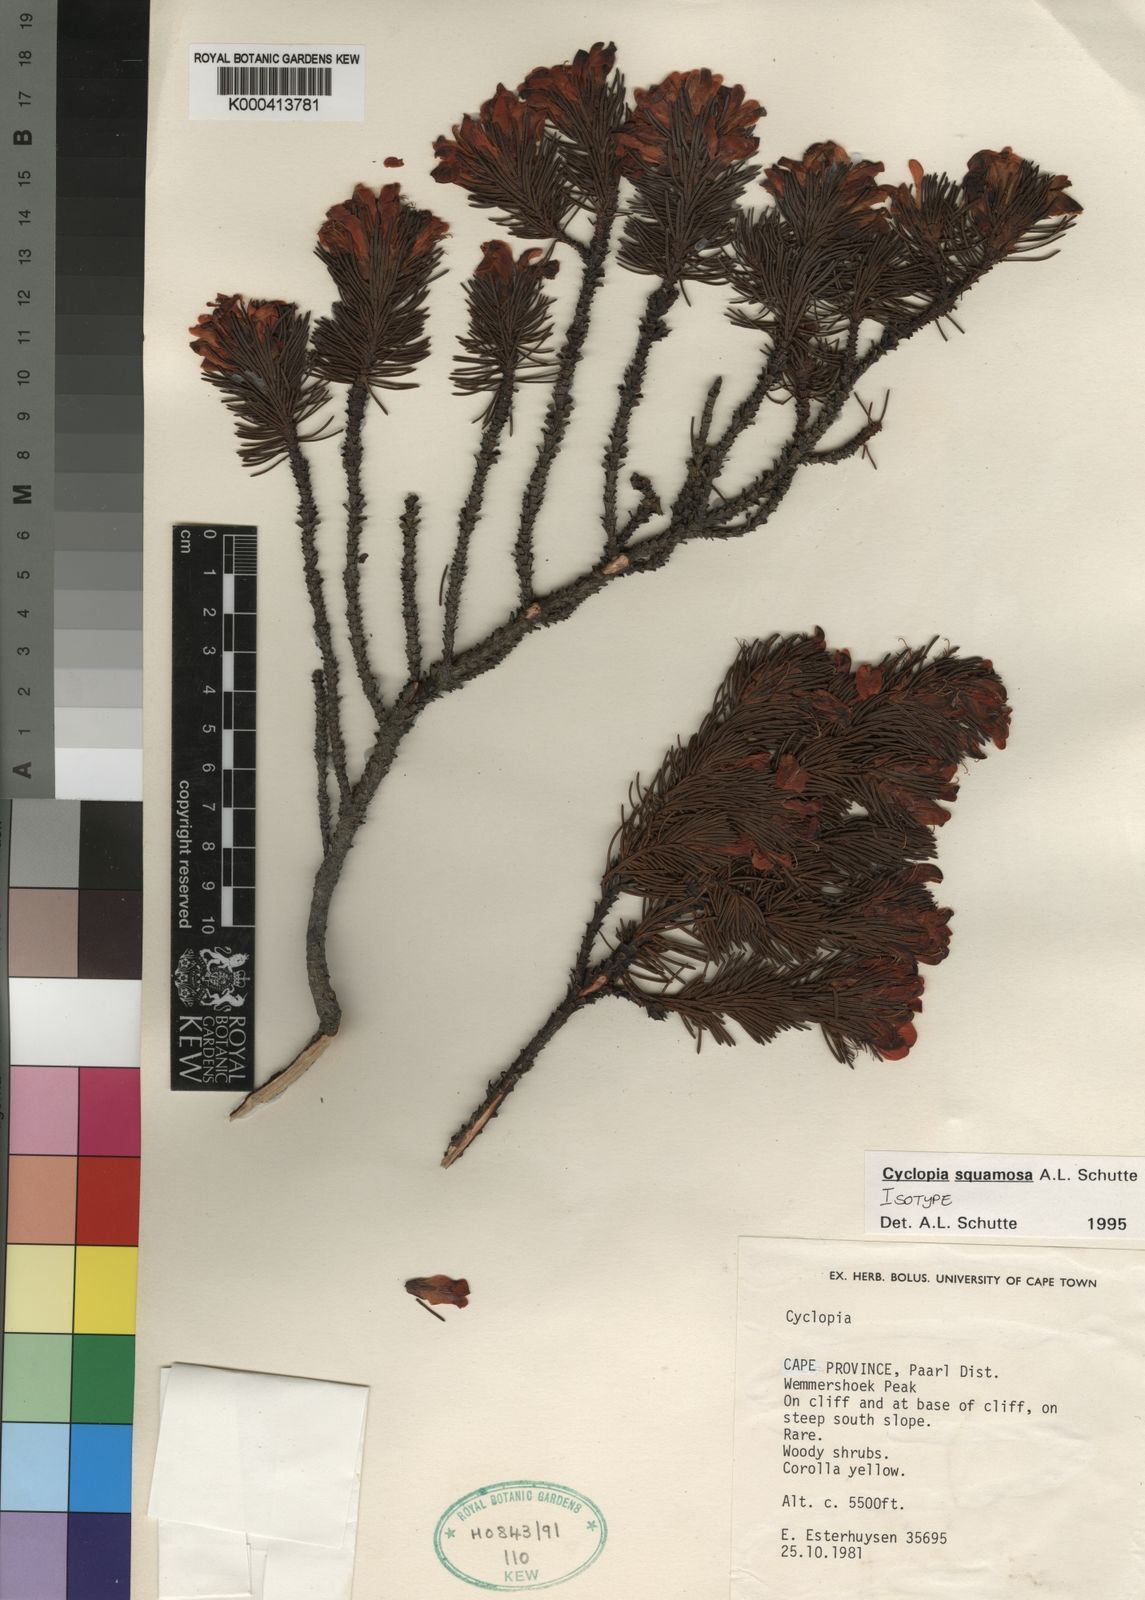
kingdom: Plantae
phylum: Tracheophyta
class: Magnoliopsida
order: Fabales
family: Fabaceae
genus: Cyclopia
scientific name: Cyclopia squamosa
